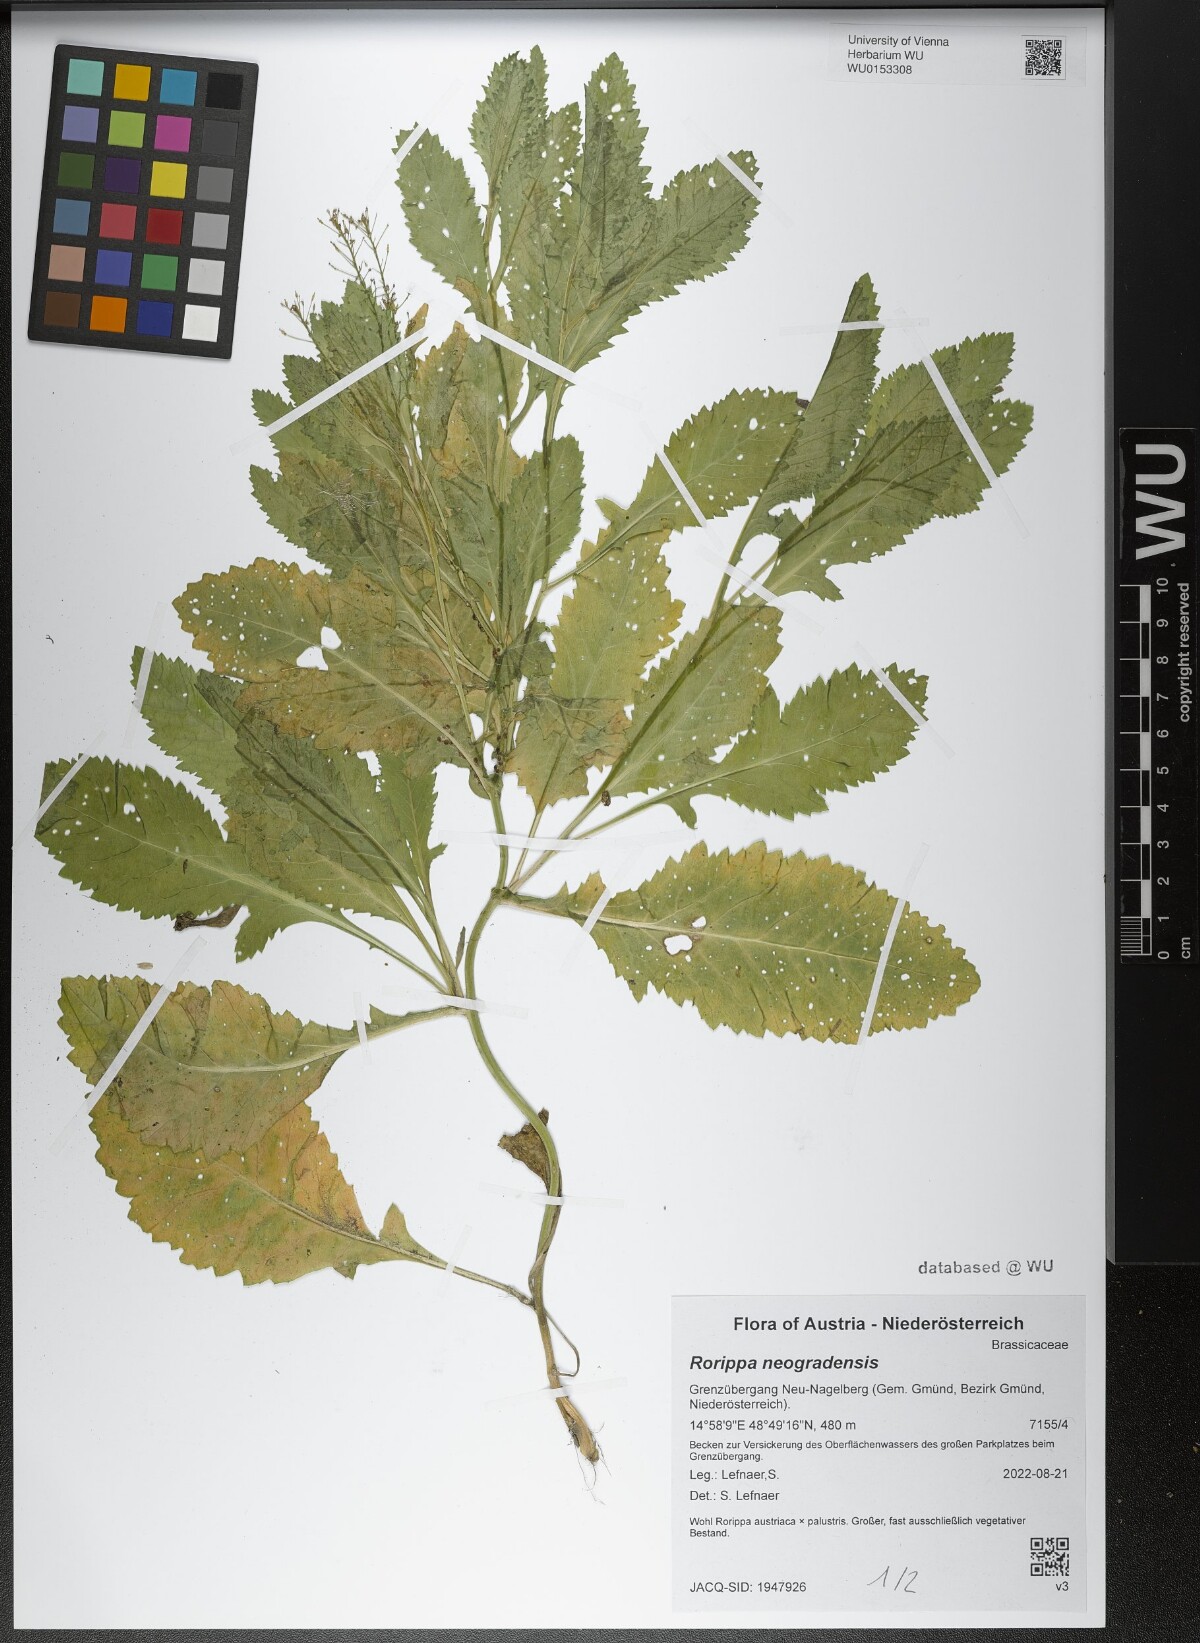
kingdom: Plantae
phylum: Tracheophyta
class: Magnoliopsida
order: Brassicales
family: Brassicaceae
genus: Rorippa
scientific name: Rorippa neogradensis
